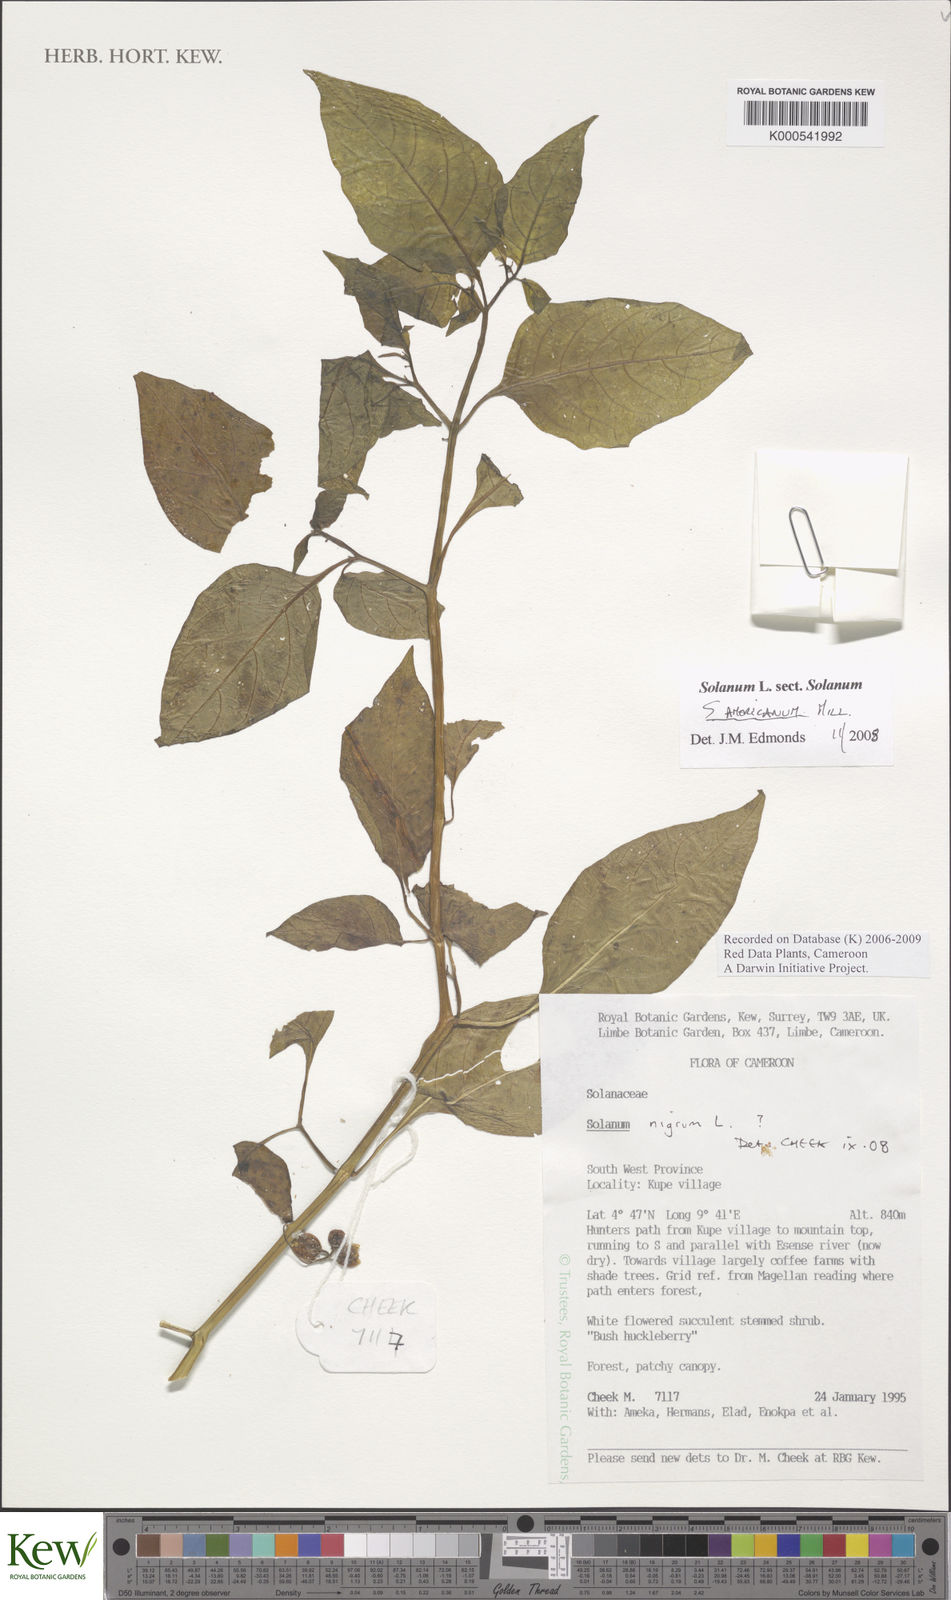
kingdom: Plantae
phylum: Tracheophyta
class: Magnoliopsida
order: Solanales
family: Solanaceae
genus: Solanum
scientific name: Solanum americanum
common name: American black nightshade
